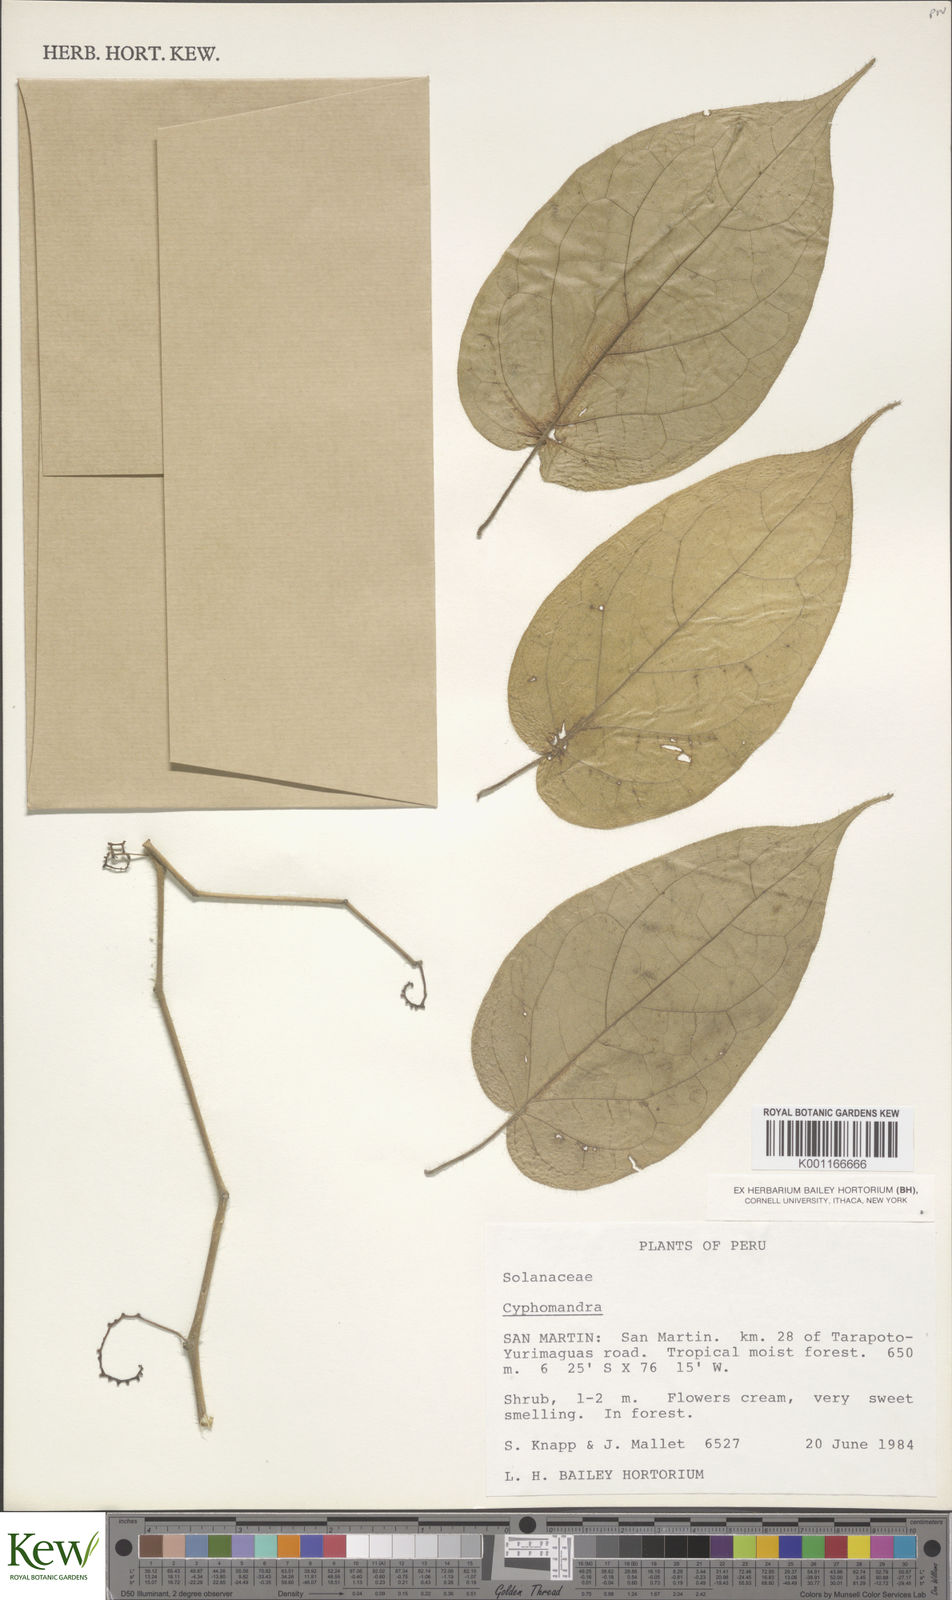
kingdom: Plantae
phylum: Tracheophyta
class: Magnoliopsida
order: Solanales
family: Solanaceae
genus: Solanum
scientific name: Solanum
